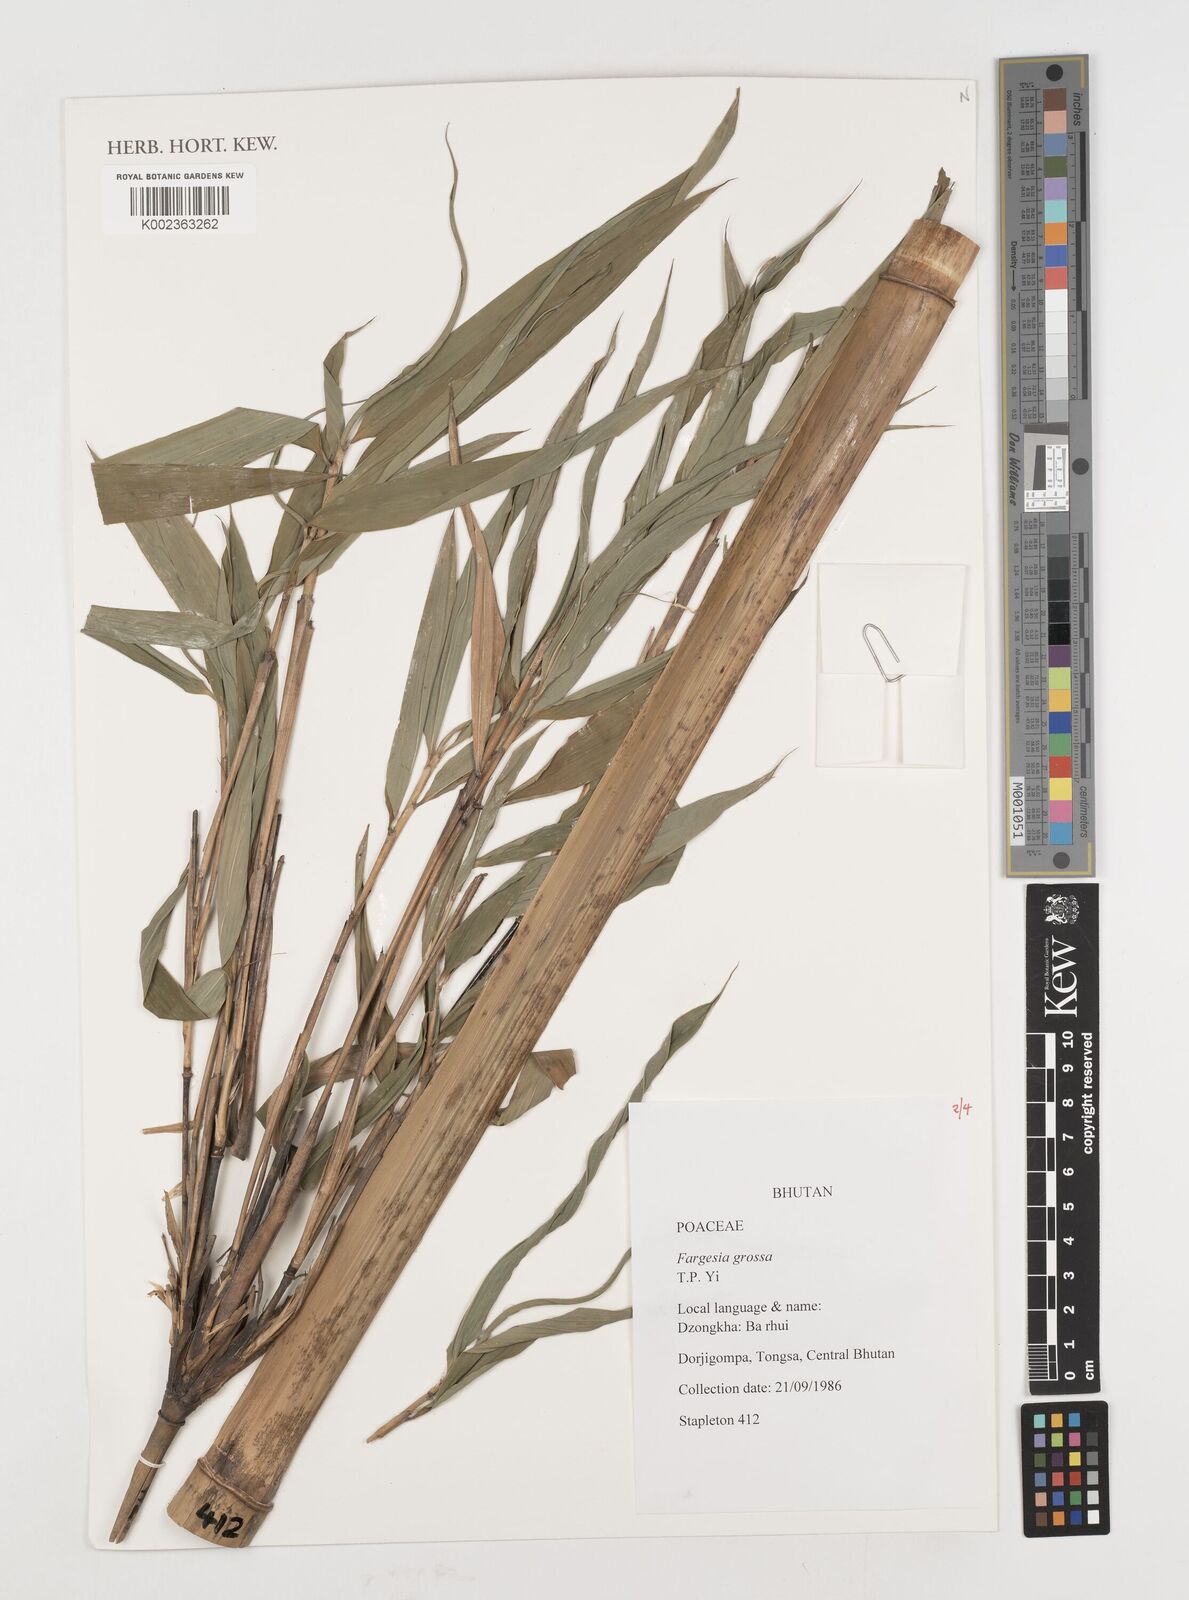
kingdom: Plantae
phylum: Tracheophyta
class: Liliopsida
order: Poales
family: Poaceae
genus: Borinda
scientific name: Borinda grossa
